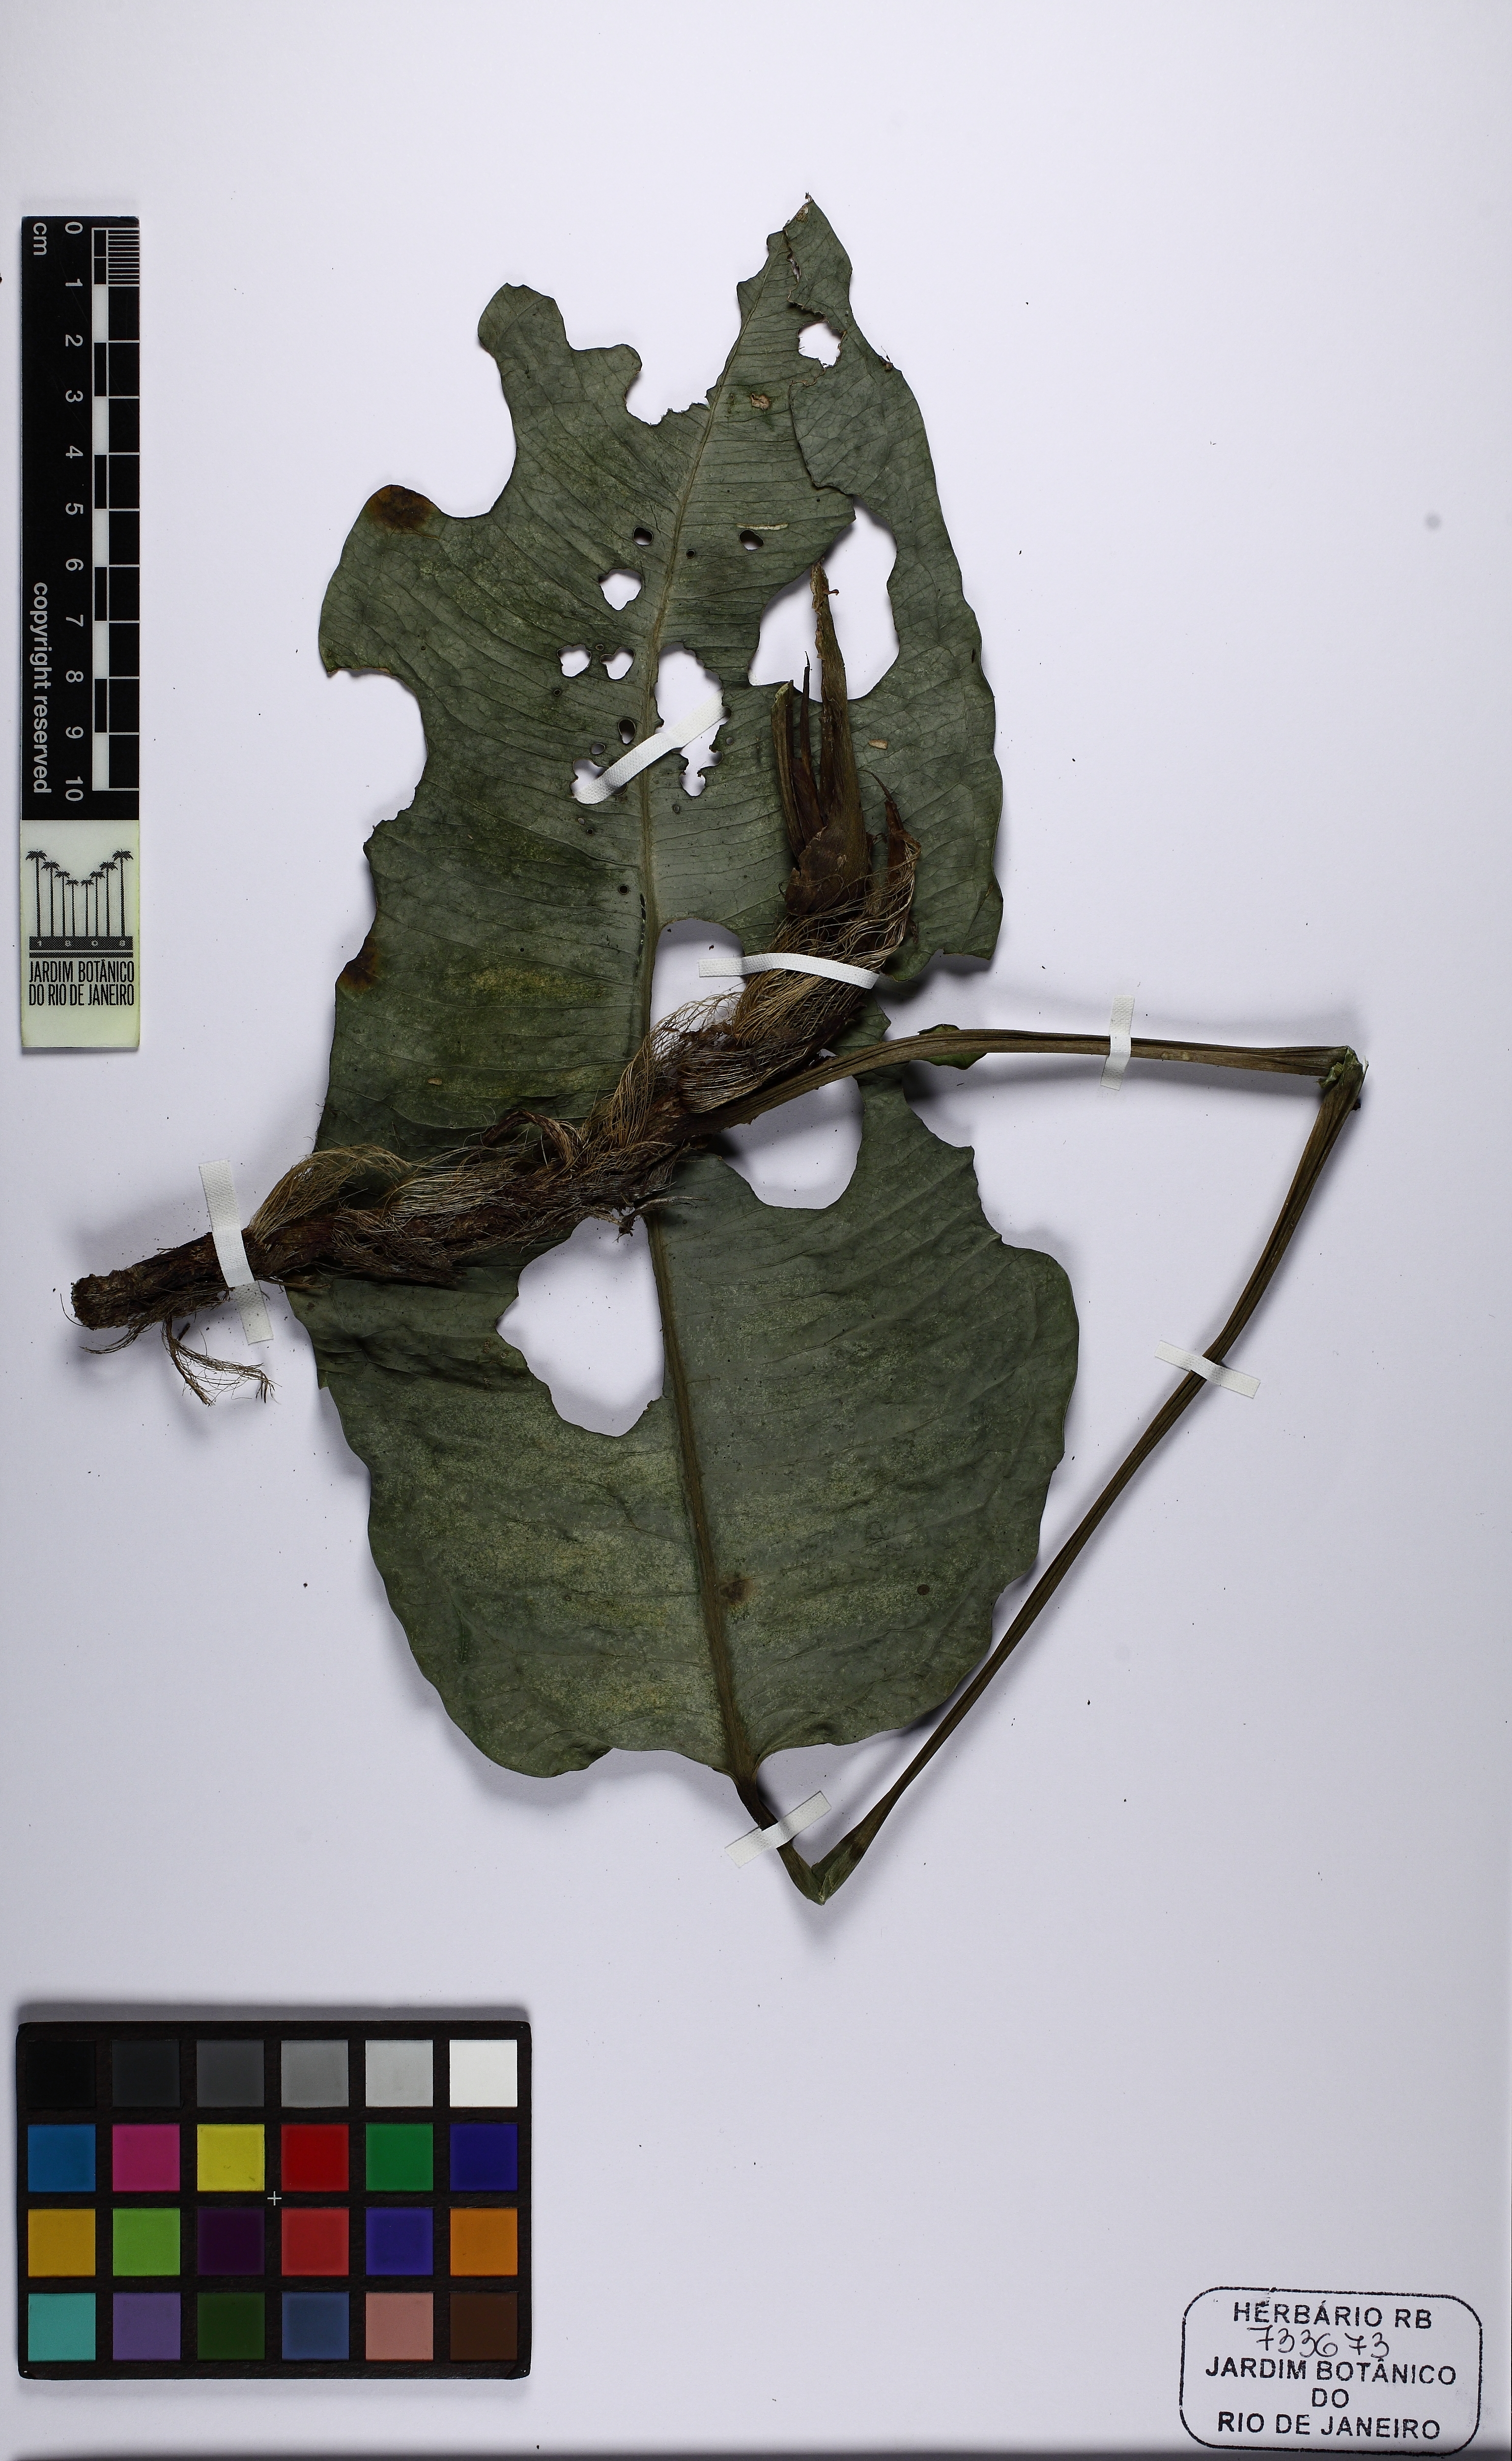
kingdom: Plantae
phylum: Tracheophyta
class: Liliopsida
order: Alismatales
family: Araceae
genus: Anthurium
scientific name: Anthurium parasiticum
